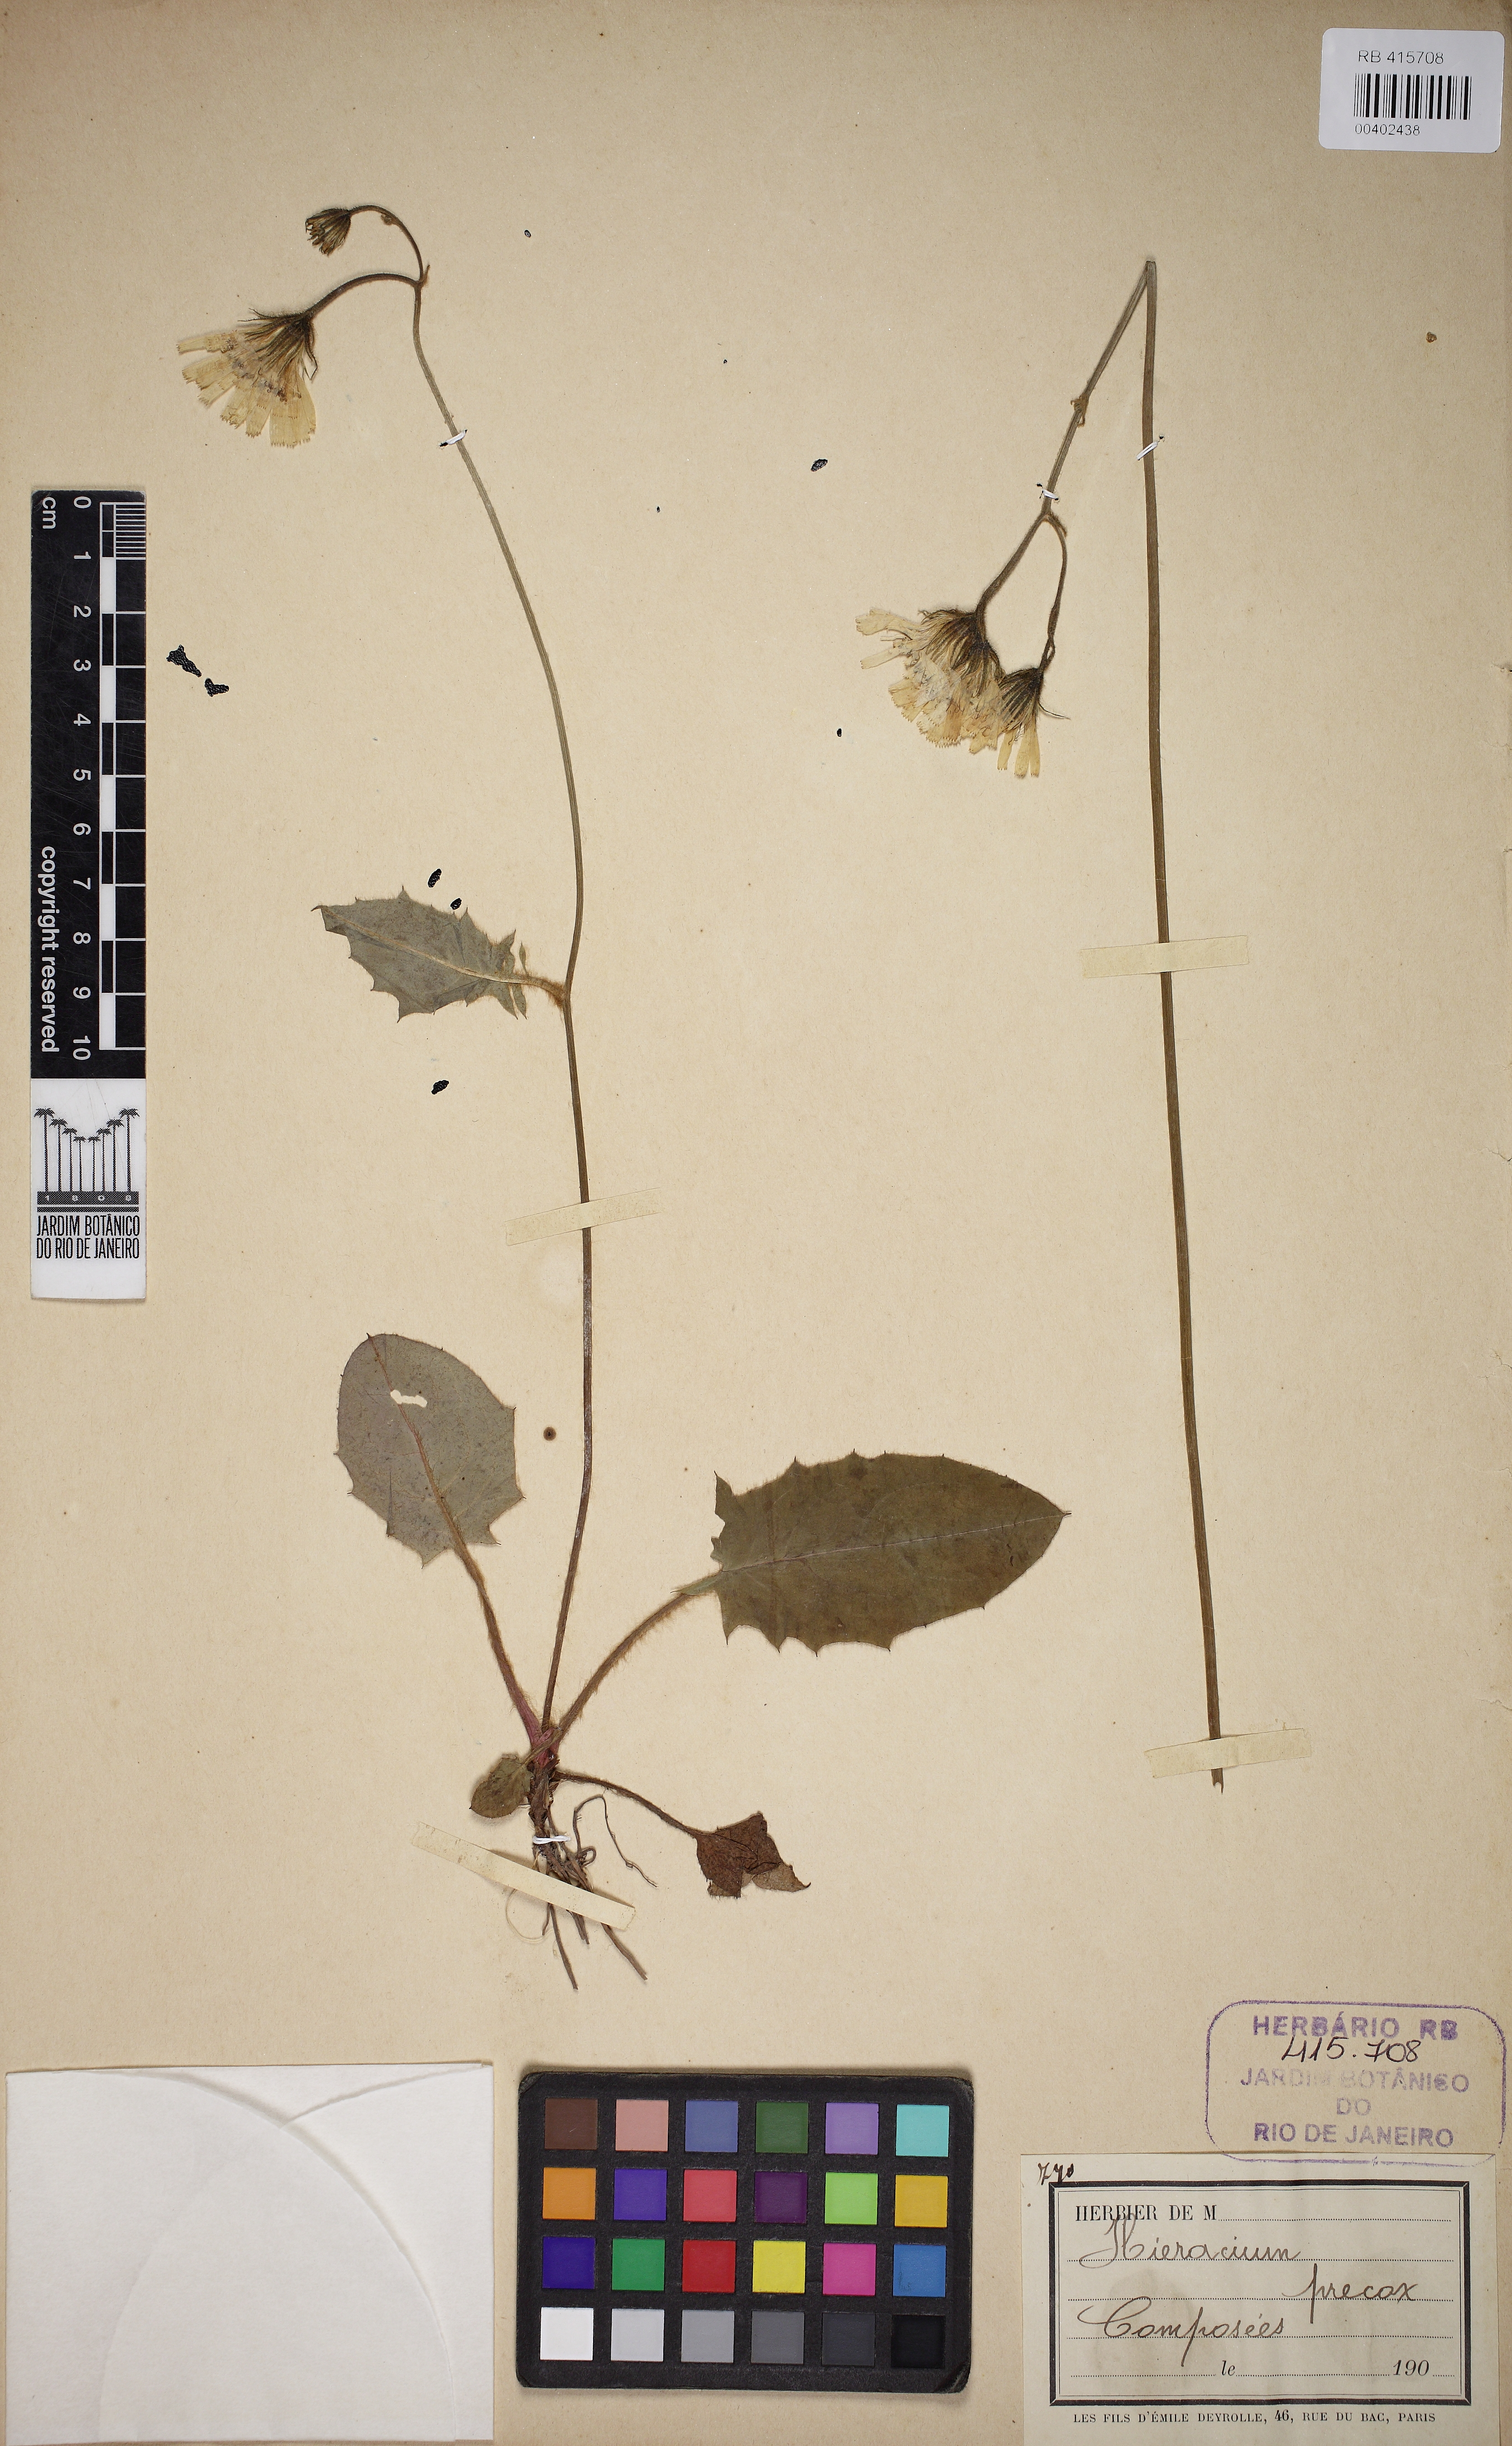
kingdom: Plantae
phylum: Tracheophyta
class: Magnoliopsida
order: Asterales
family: Asteraceae
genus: Hieracium
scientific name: Hieracium
